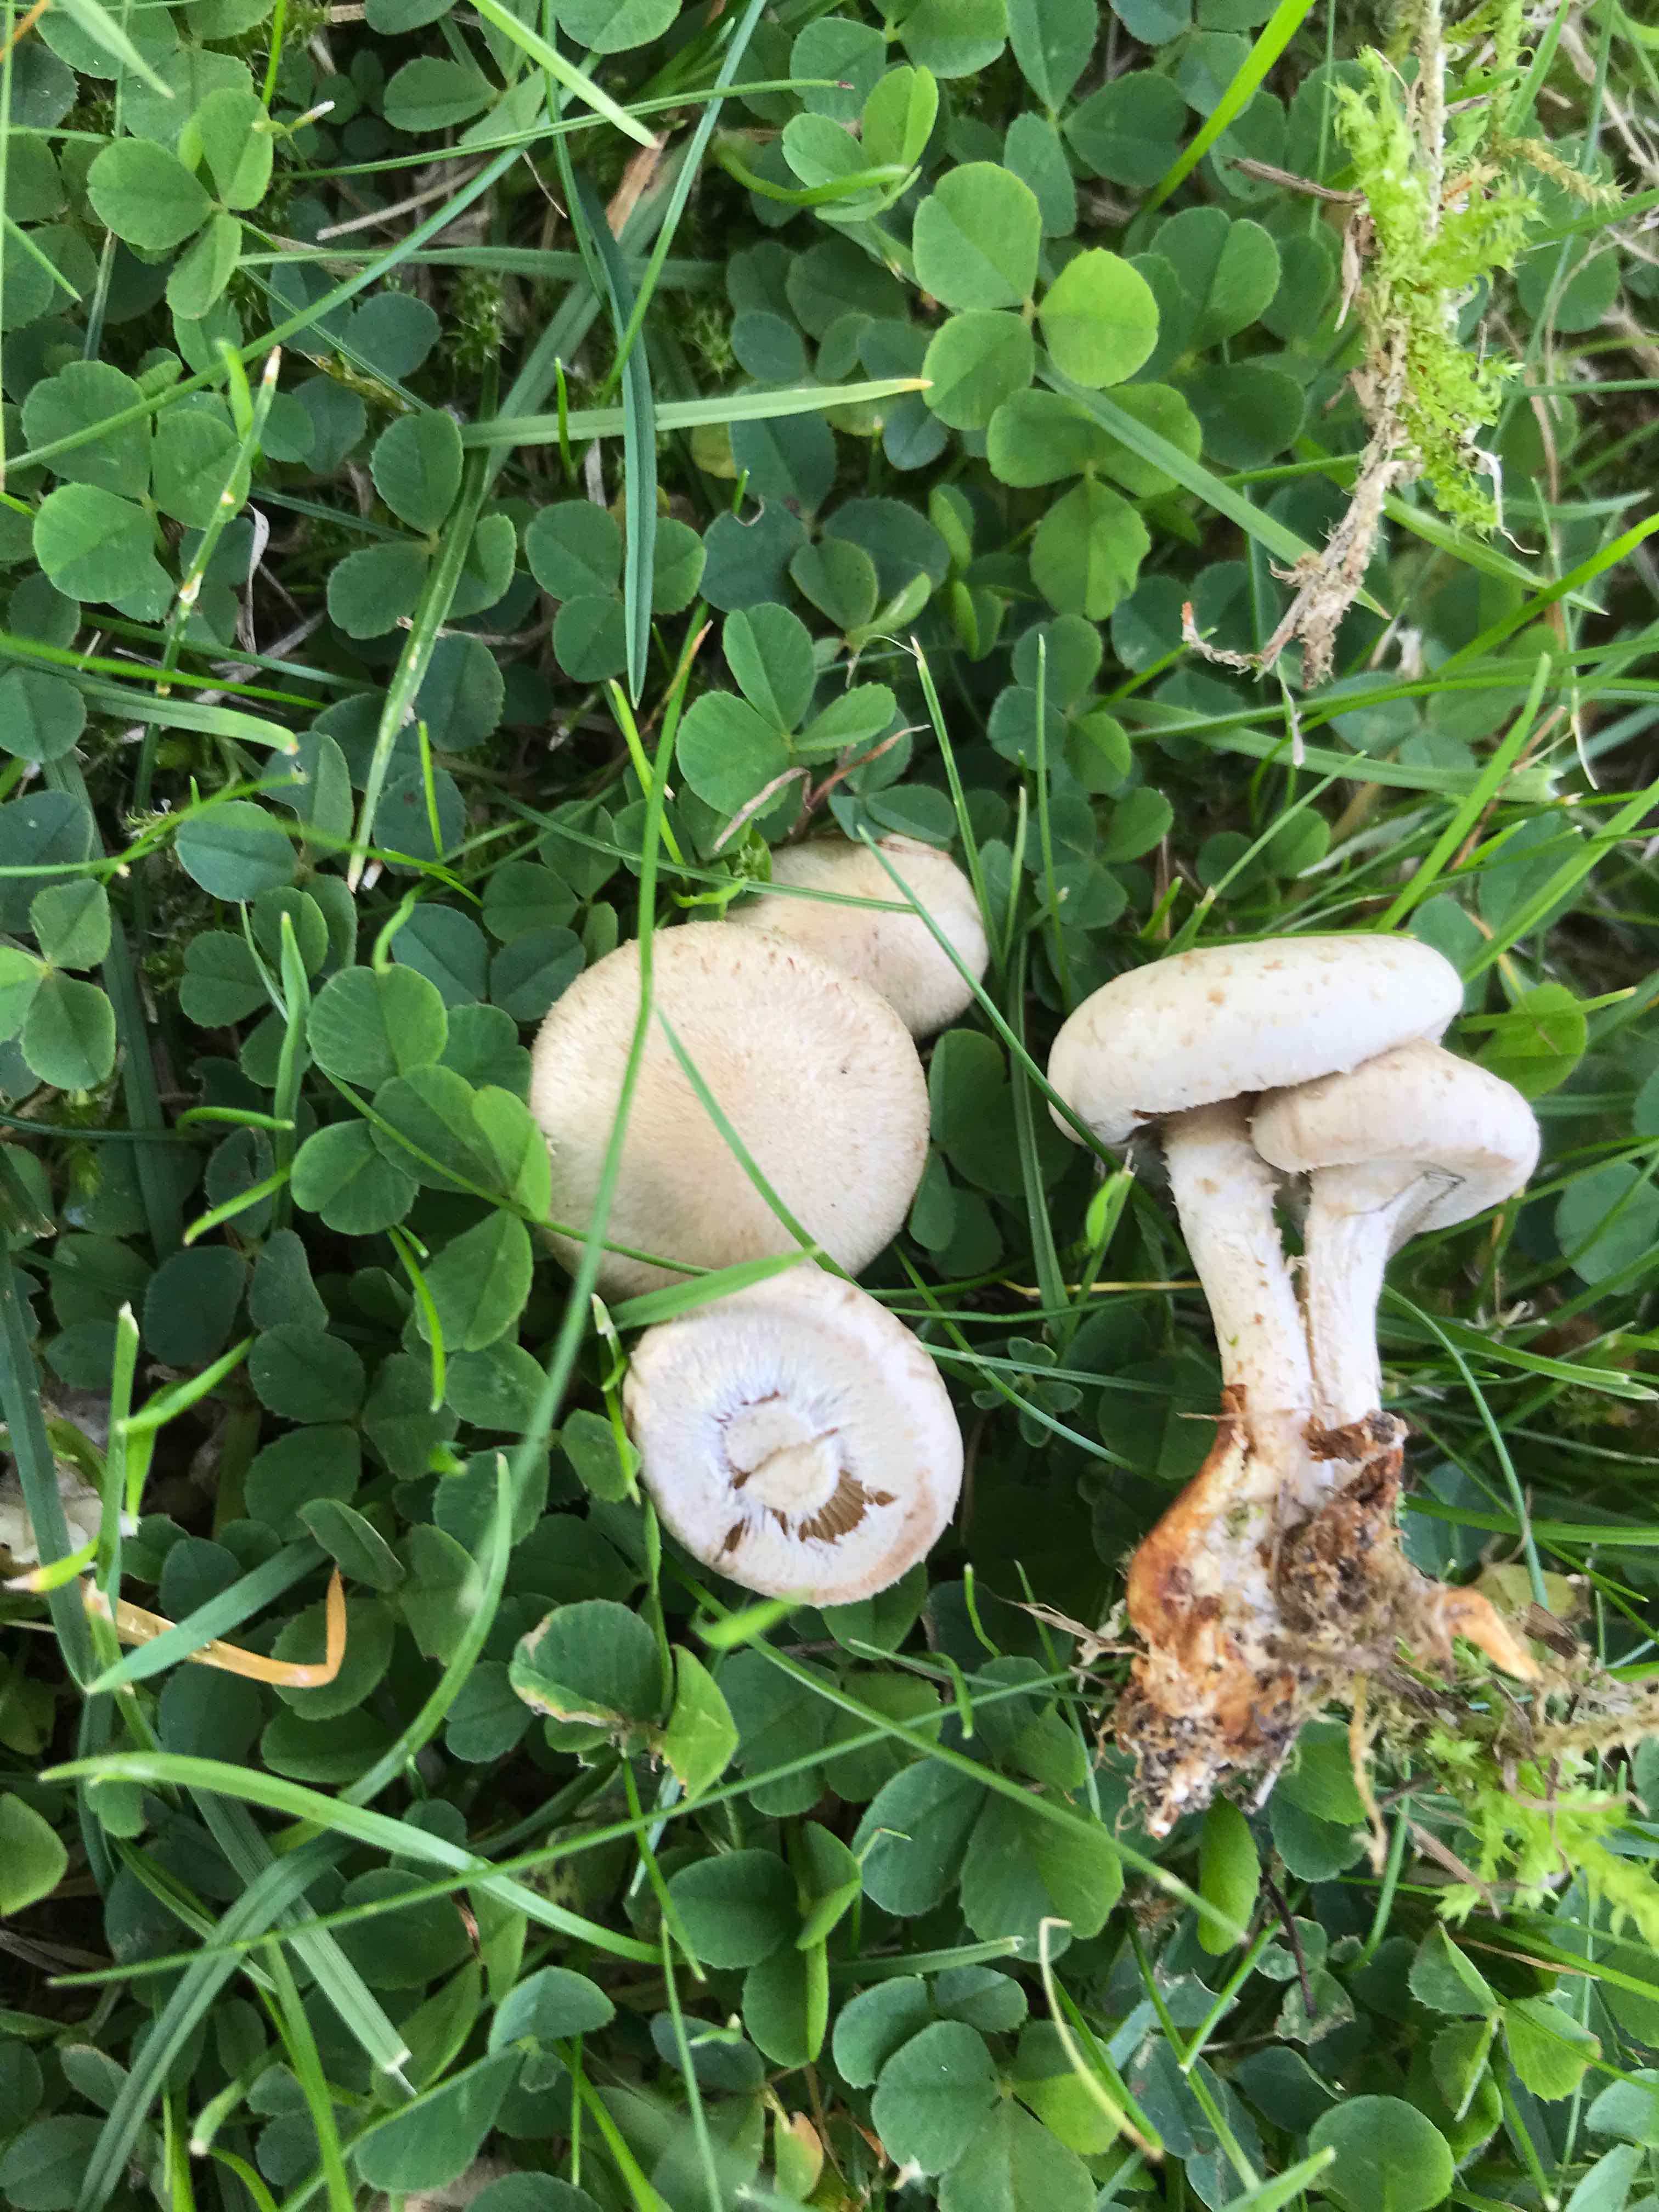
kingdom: Fungi
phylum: Basidiomycota
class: Agaricomycetes
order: Agaricales
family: Strophariaceae
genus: Pholiota
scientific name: Pholiota gummosa
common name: grøngul skælhat
